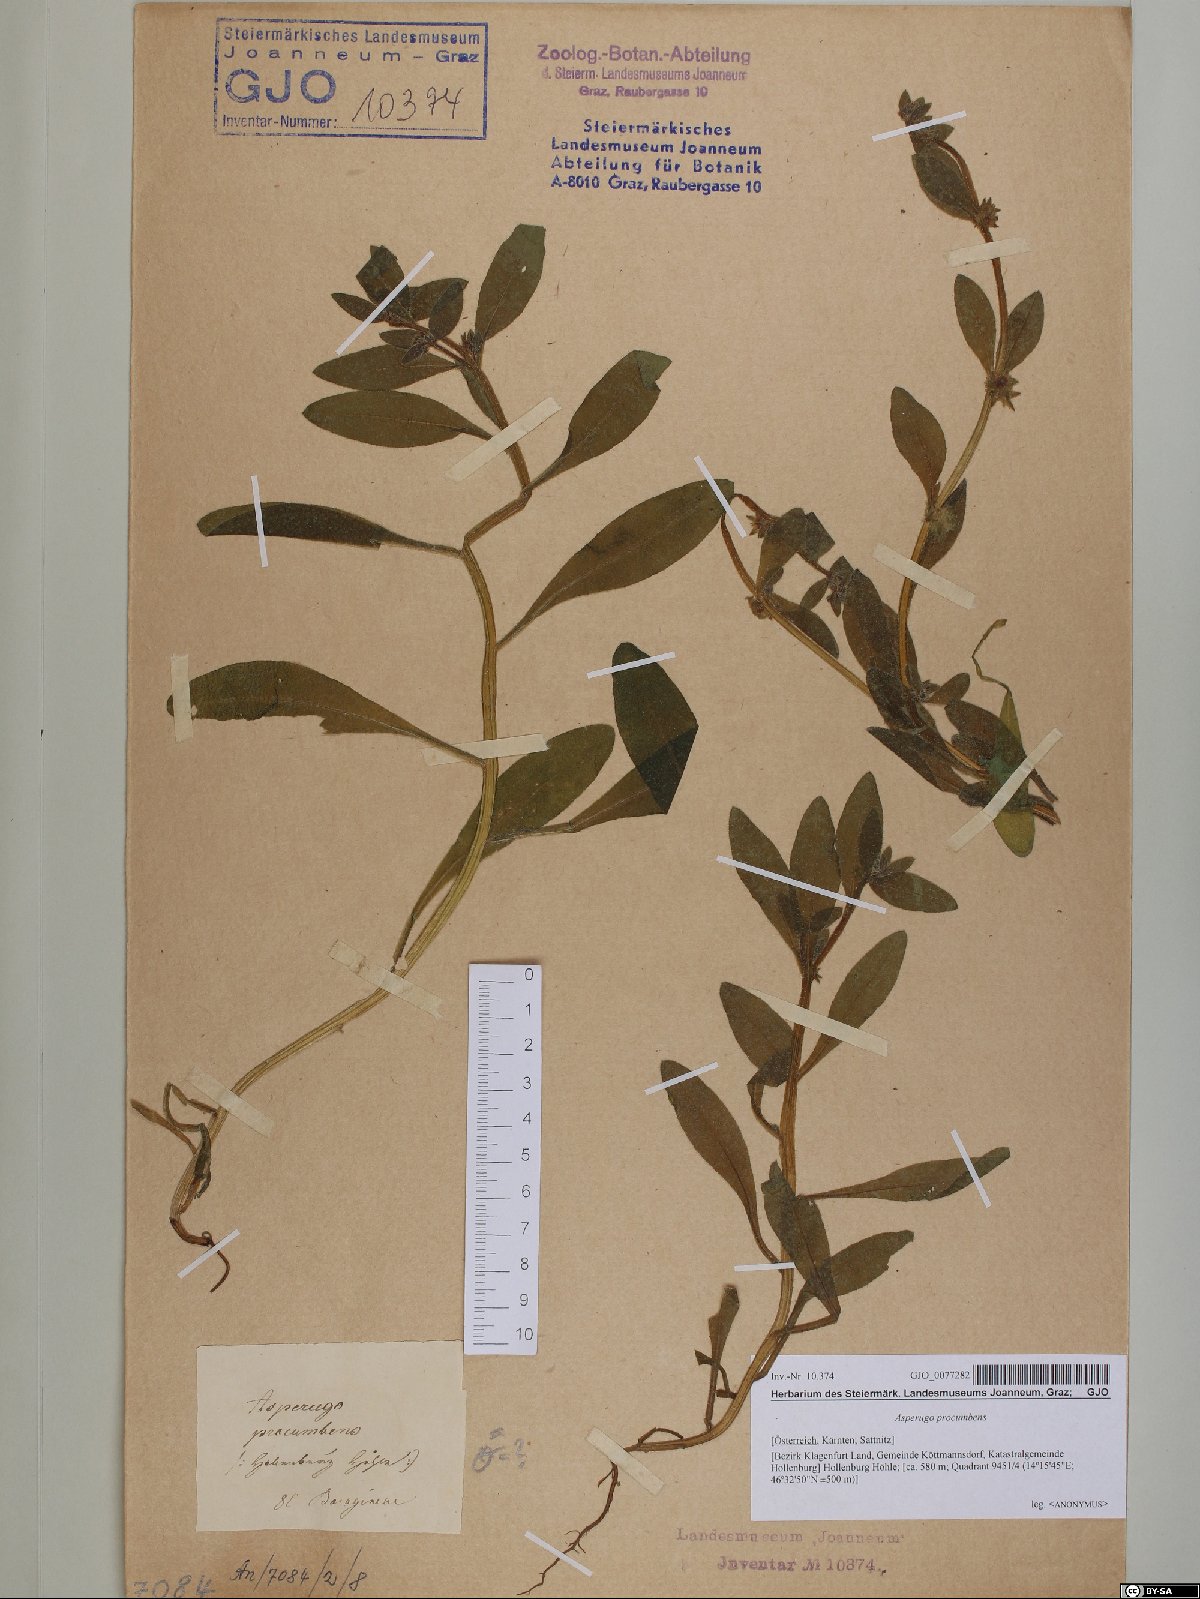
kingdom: Plantae
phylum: Tracheophyta
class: Magnoliopsida
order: Boraginales
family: Boraginaceae
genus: Asperugo
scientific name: Asperugo procumbens
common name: Madwort
